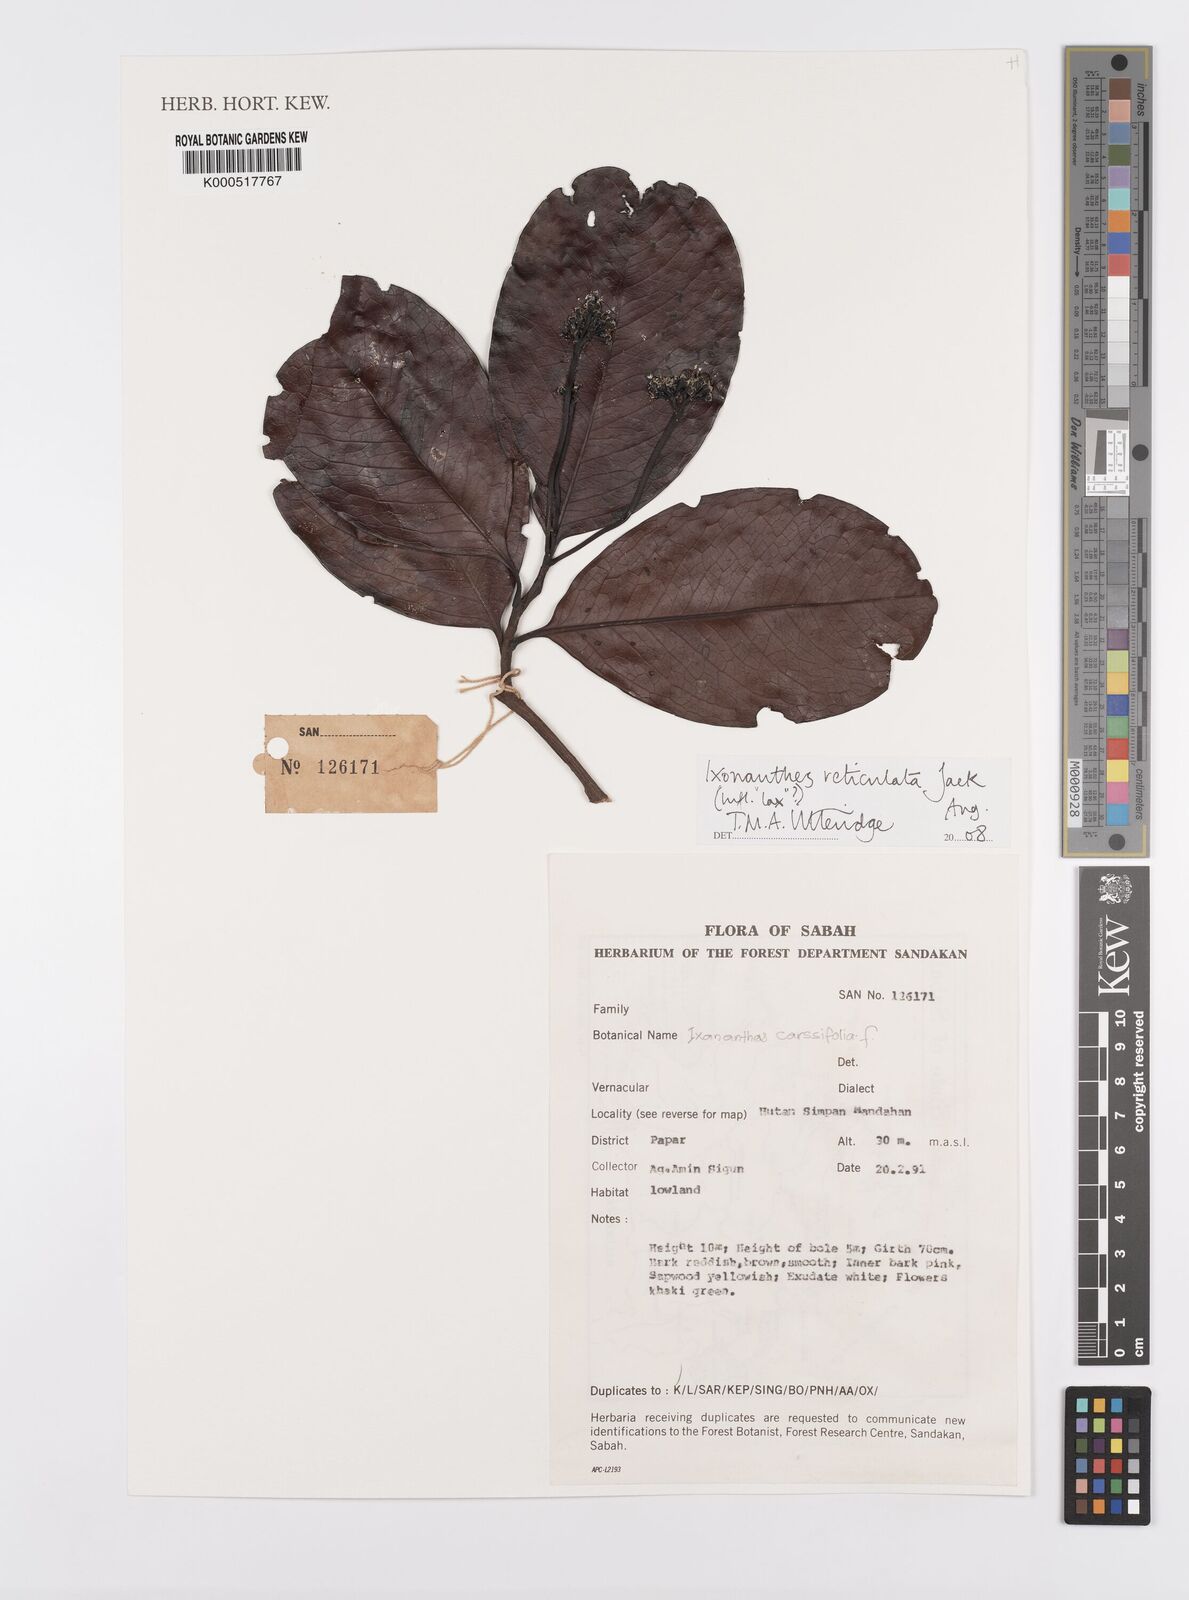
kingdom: Plantae
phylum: Tracheophyta
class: Magnoliopsida
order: Malpighiales
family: Ixonanthaceae
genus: Ixonanthes
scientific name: Ixonanthes reticulata
